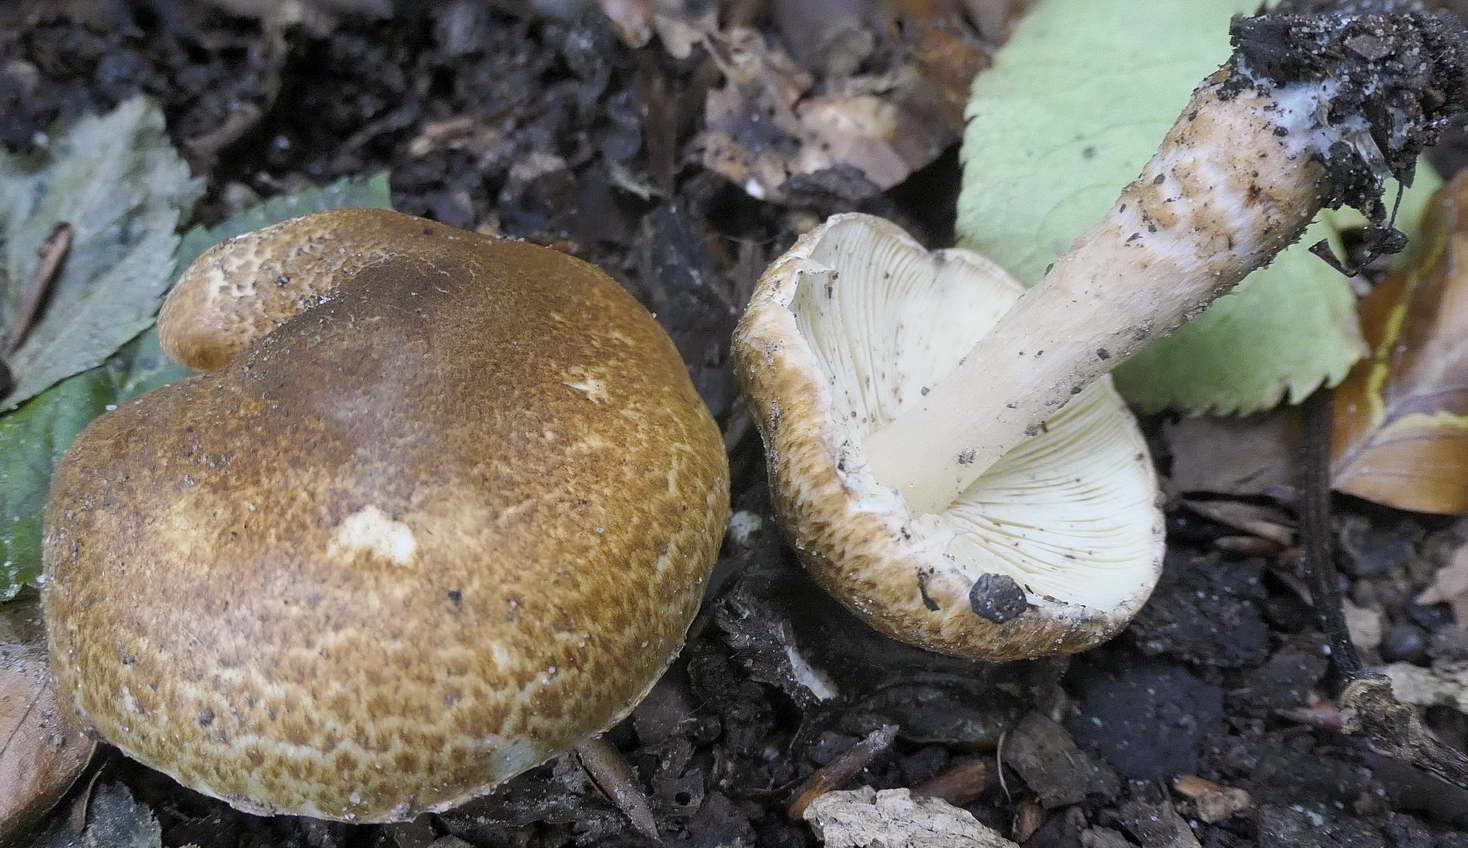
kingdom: Fungi
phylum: Basidiomycota
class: Agaricomycetes
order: Agaricales
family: Agaricaceae
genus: Leucocoprinus
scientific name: Leucocoprinus straminellus
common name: rustbrun parasolhat
